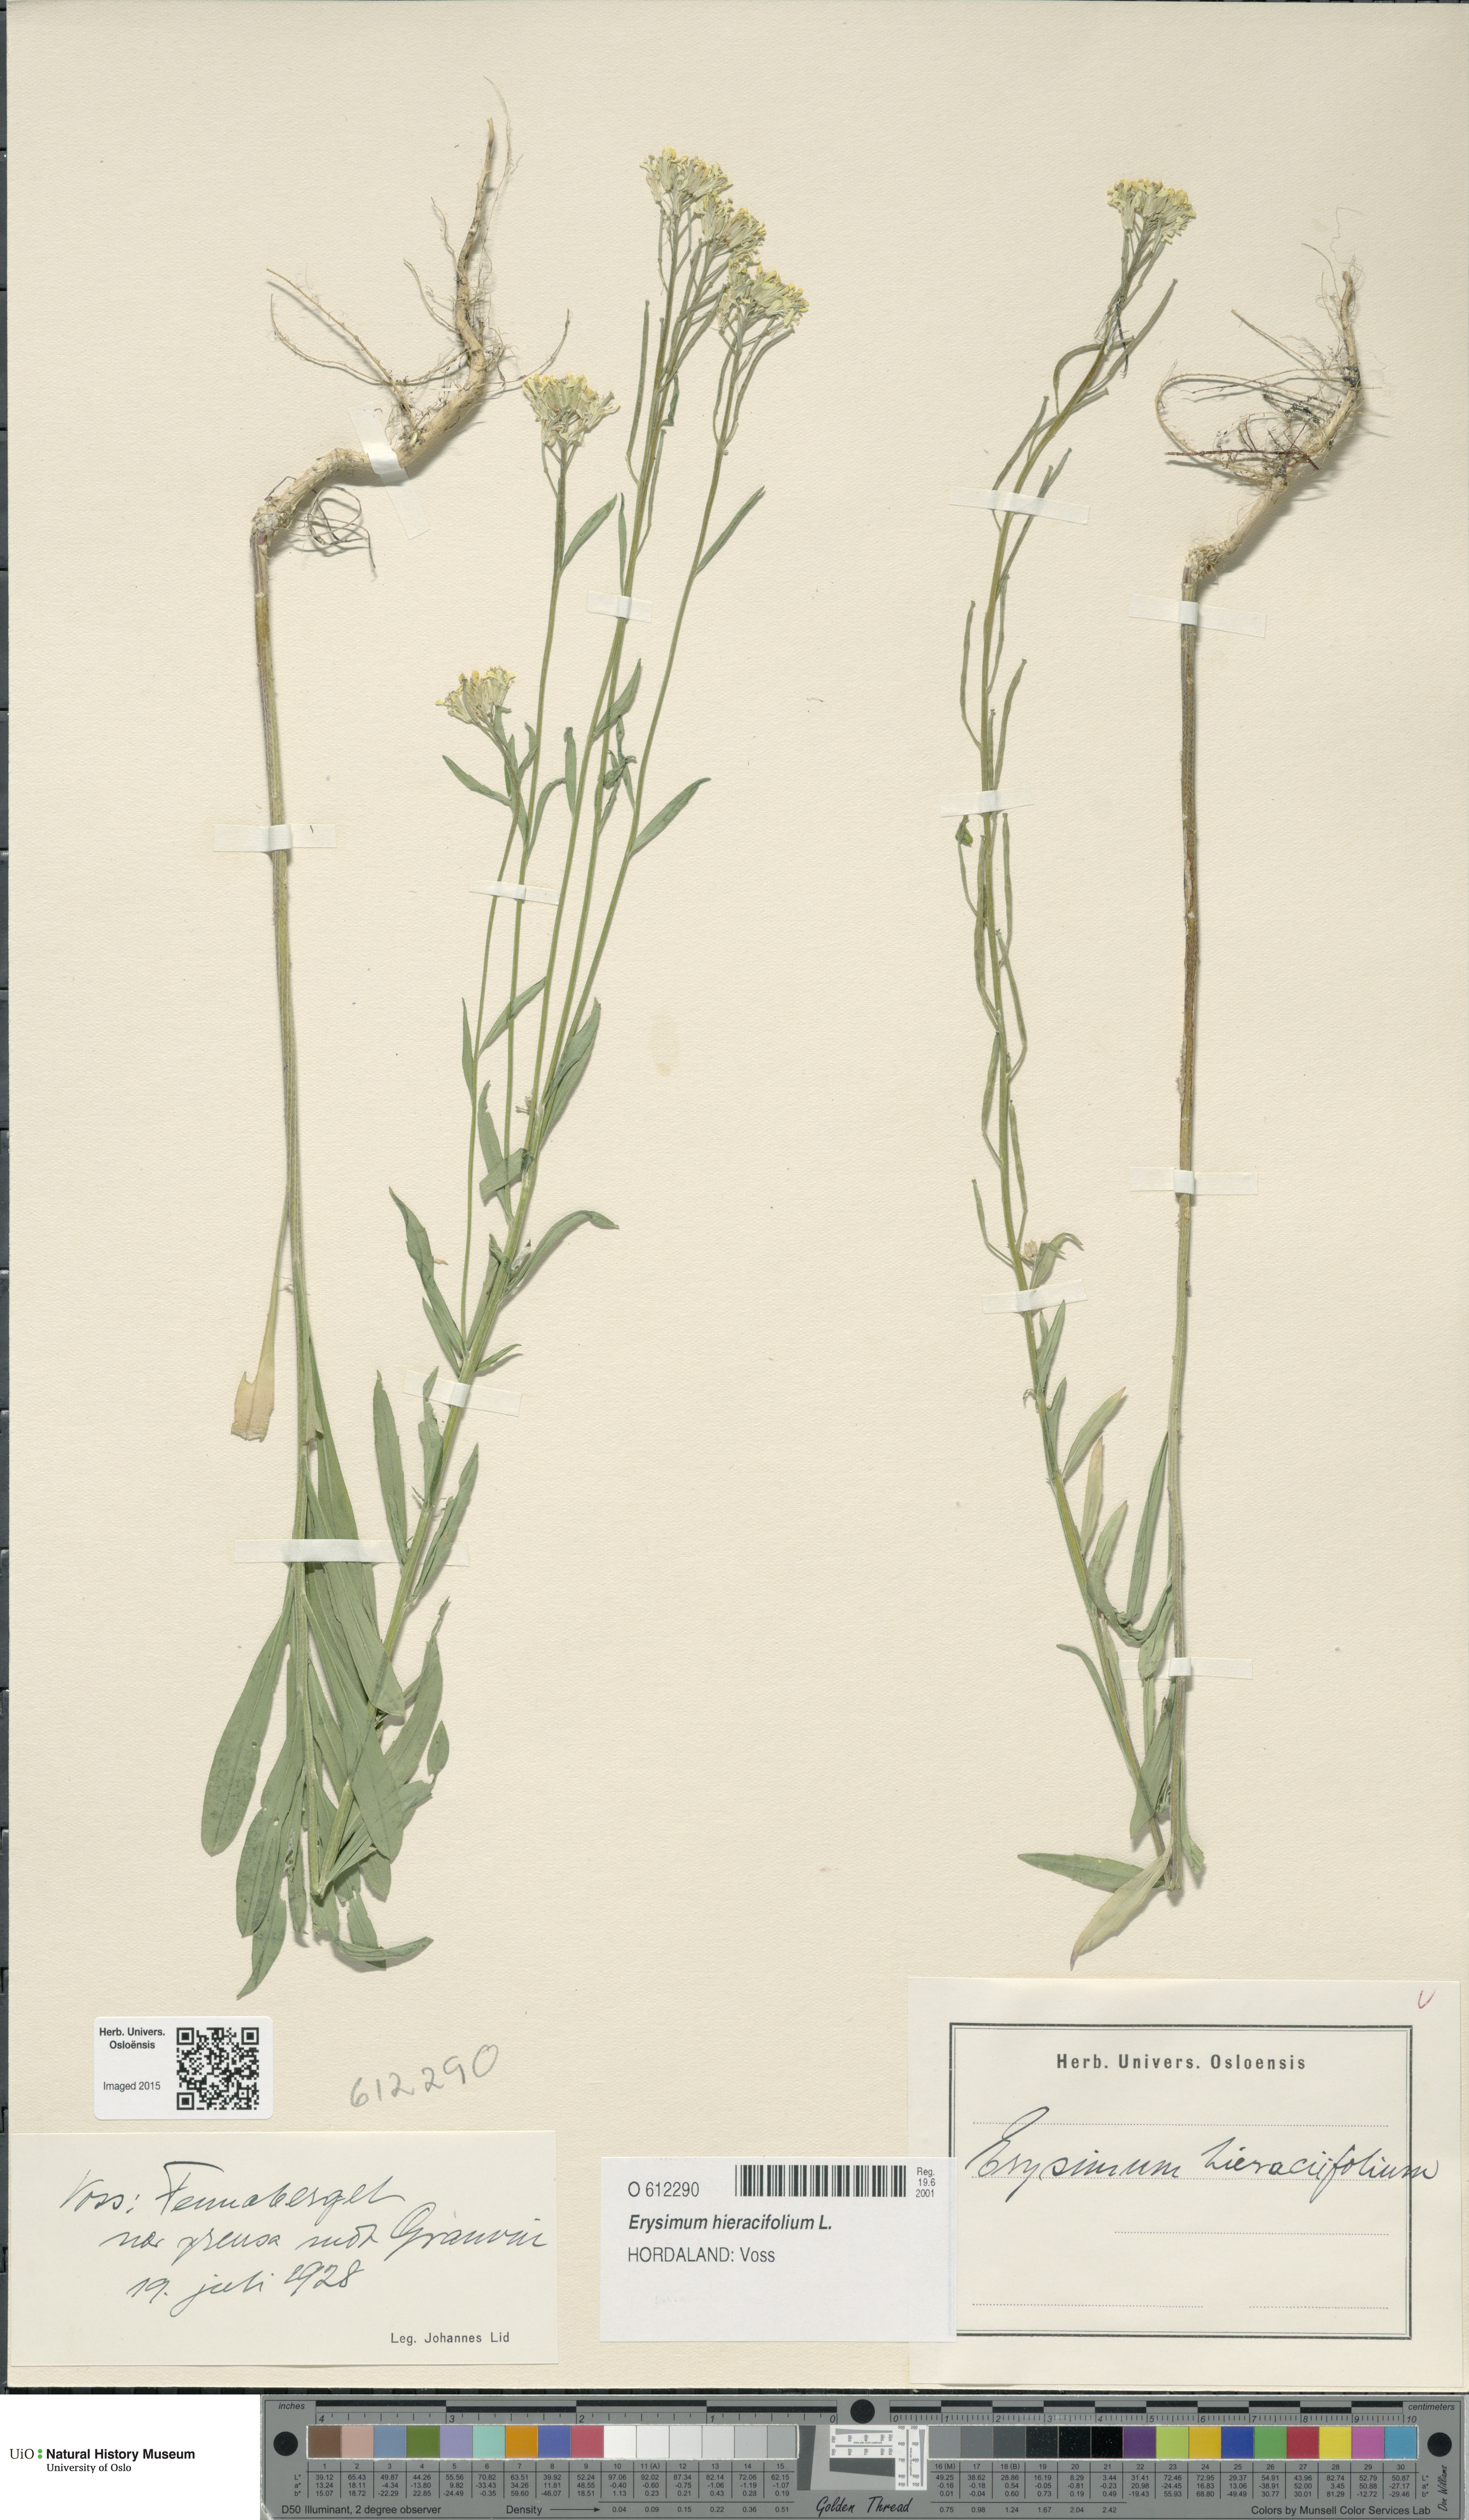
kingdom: Plantae
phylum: Tracheophyta
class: Magnoliopsida
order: Brassicales
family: Brassicaceae
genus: Erysimum
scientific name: Erysimum hieraciifolium
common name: European wallflower
